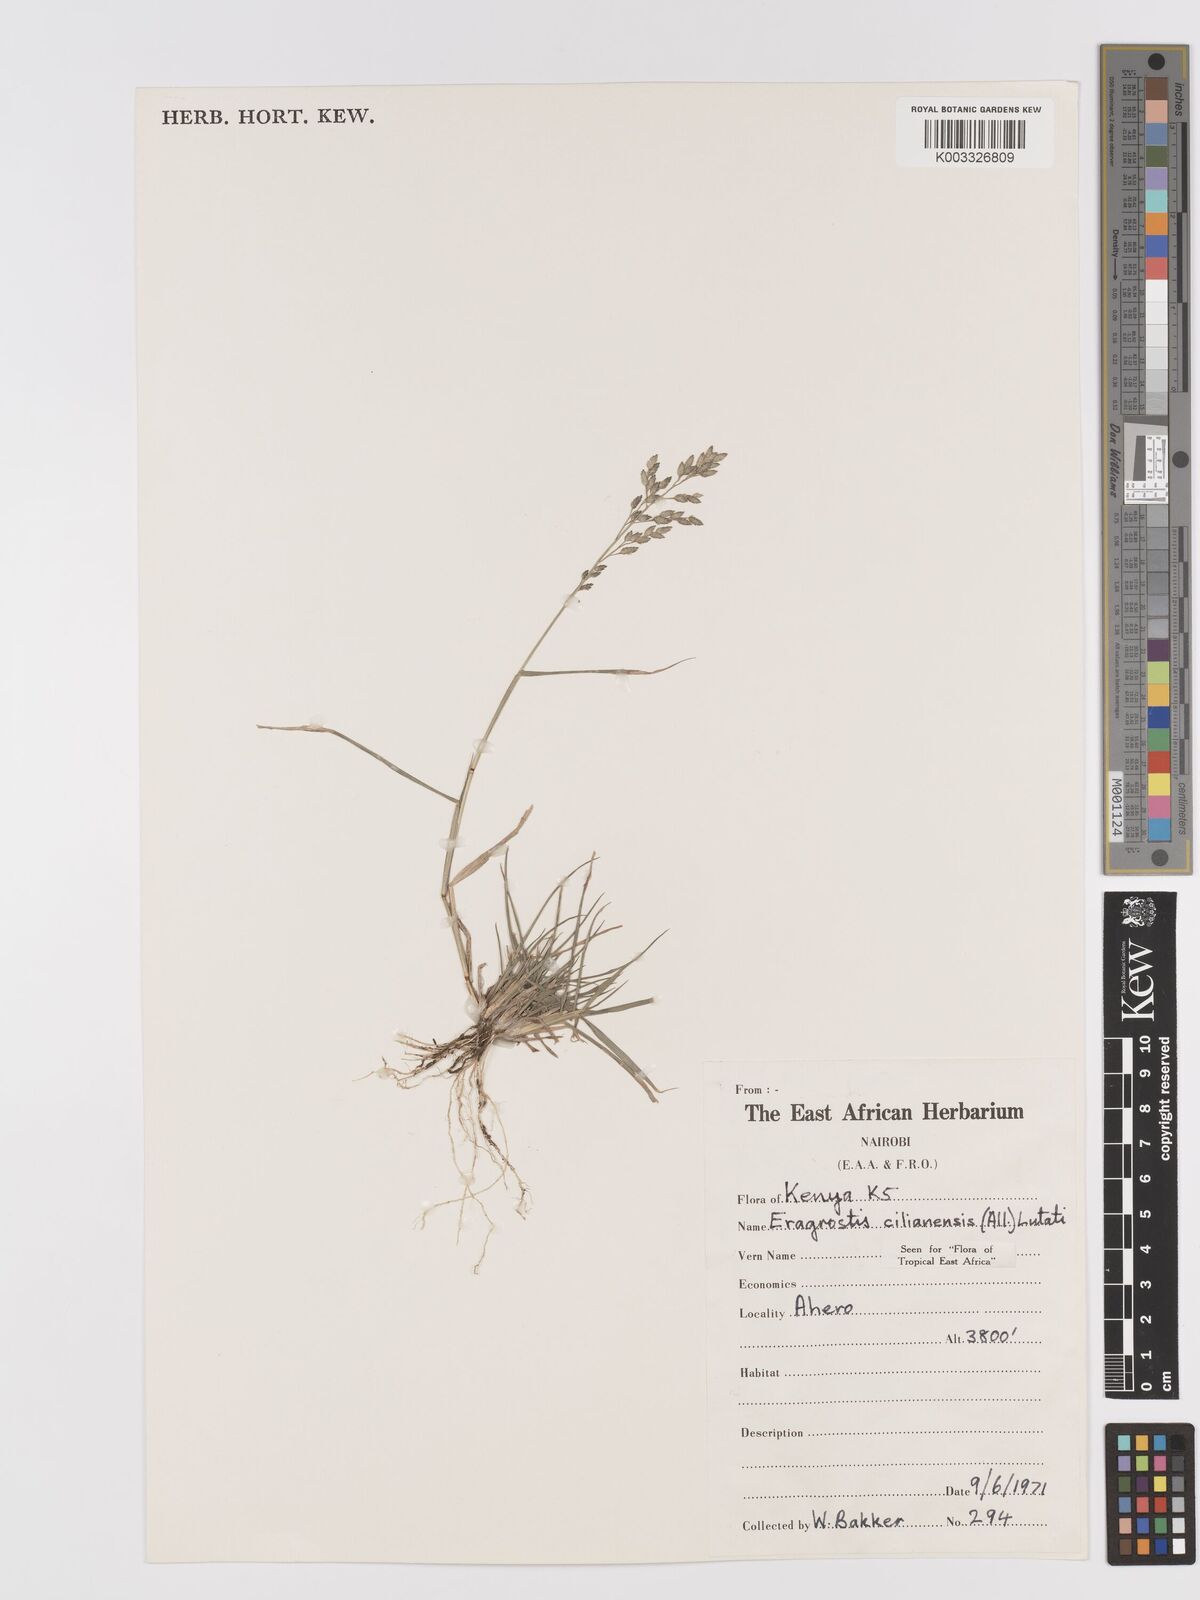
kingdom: Plantae
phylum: Tracheophyta
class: Liliopsida
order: Poales
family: Poaceae
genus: Eragrostis
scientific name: Eragrostis cilianensis
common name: Stinkgrass
